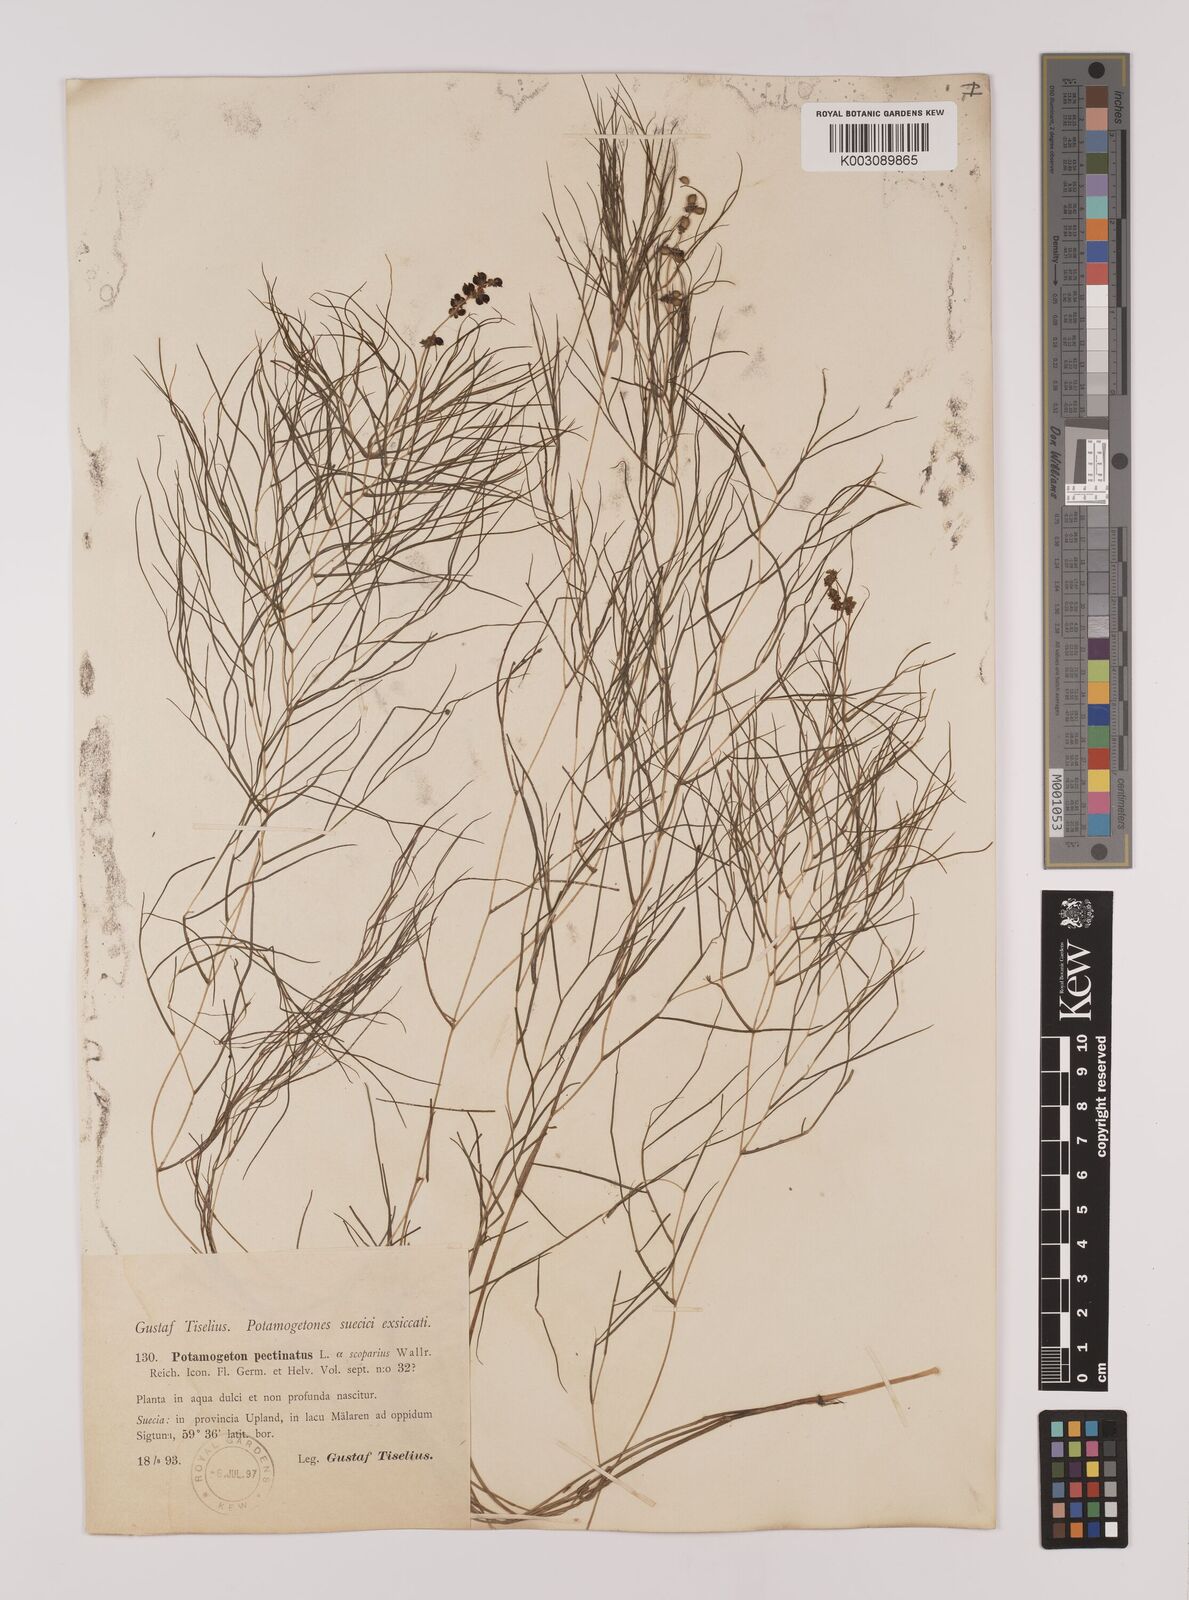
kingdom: Plantae
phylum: Tracheophyta
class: Liliopsida
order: Alismatales
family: Potamogetonaceae
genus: Stuckenia
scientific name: Stuckenia pectinata
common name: Sago pondweed
